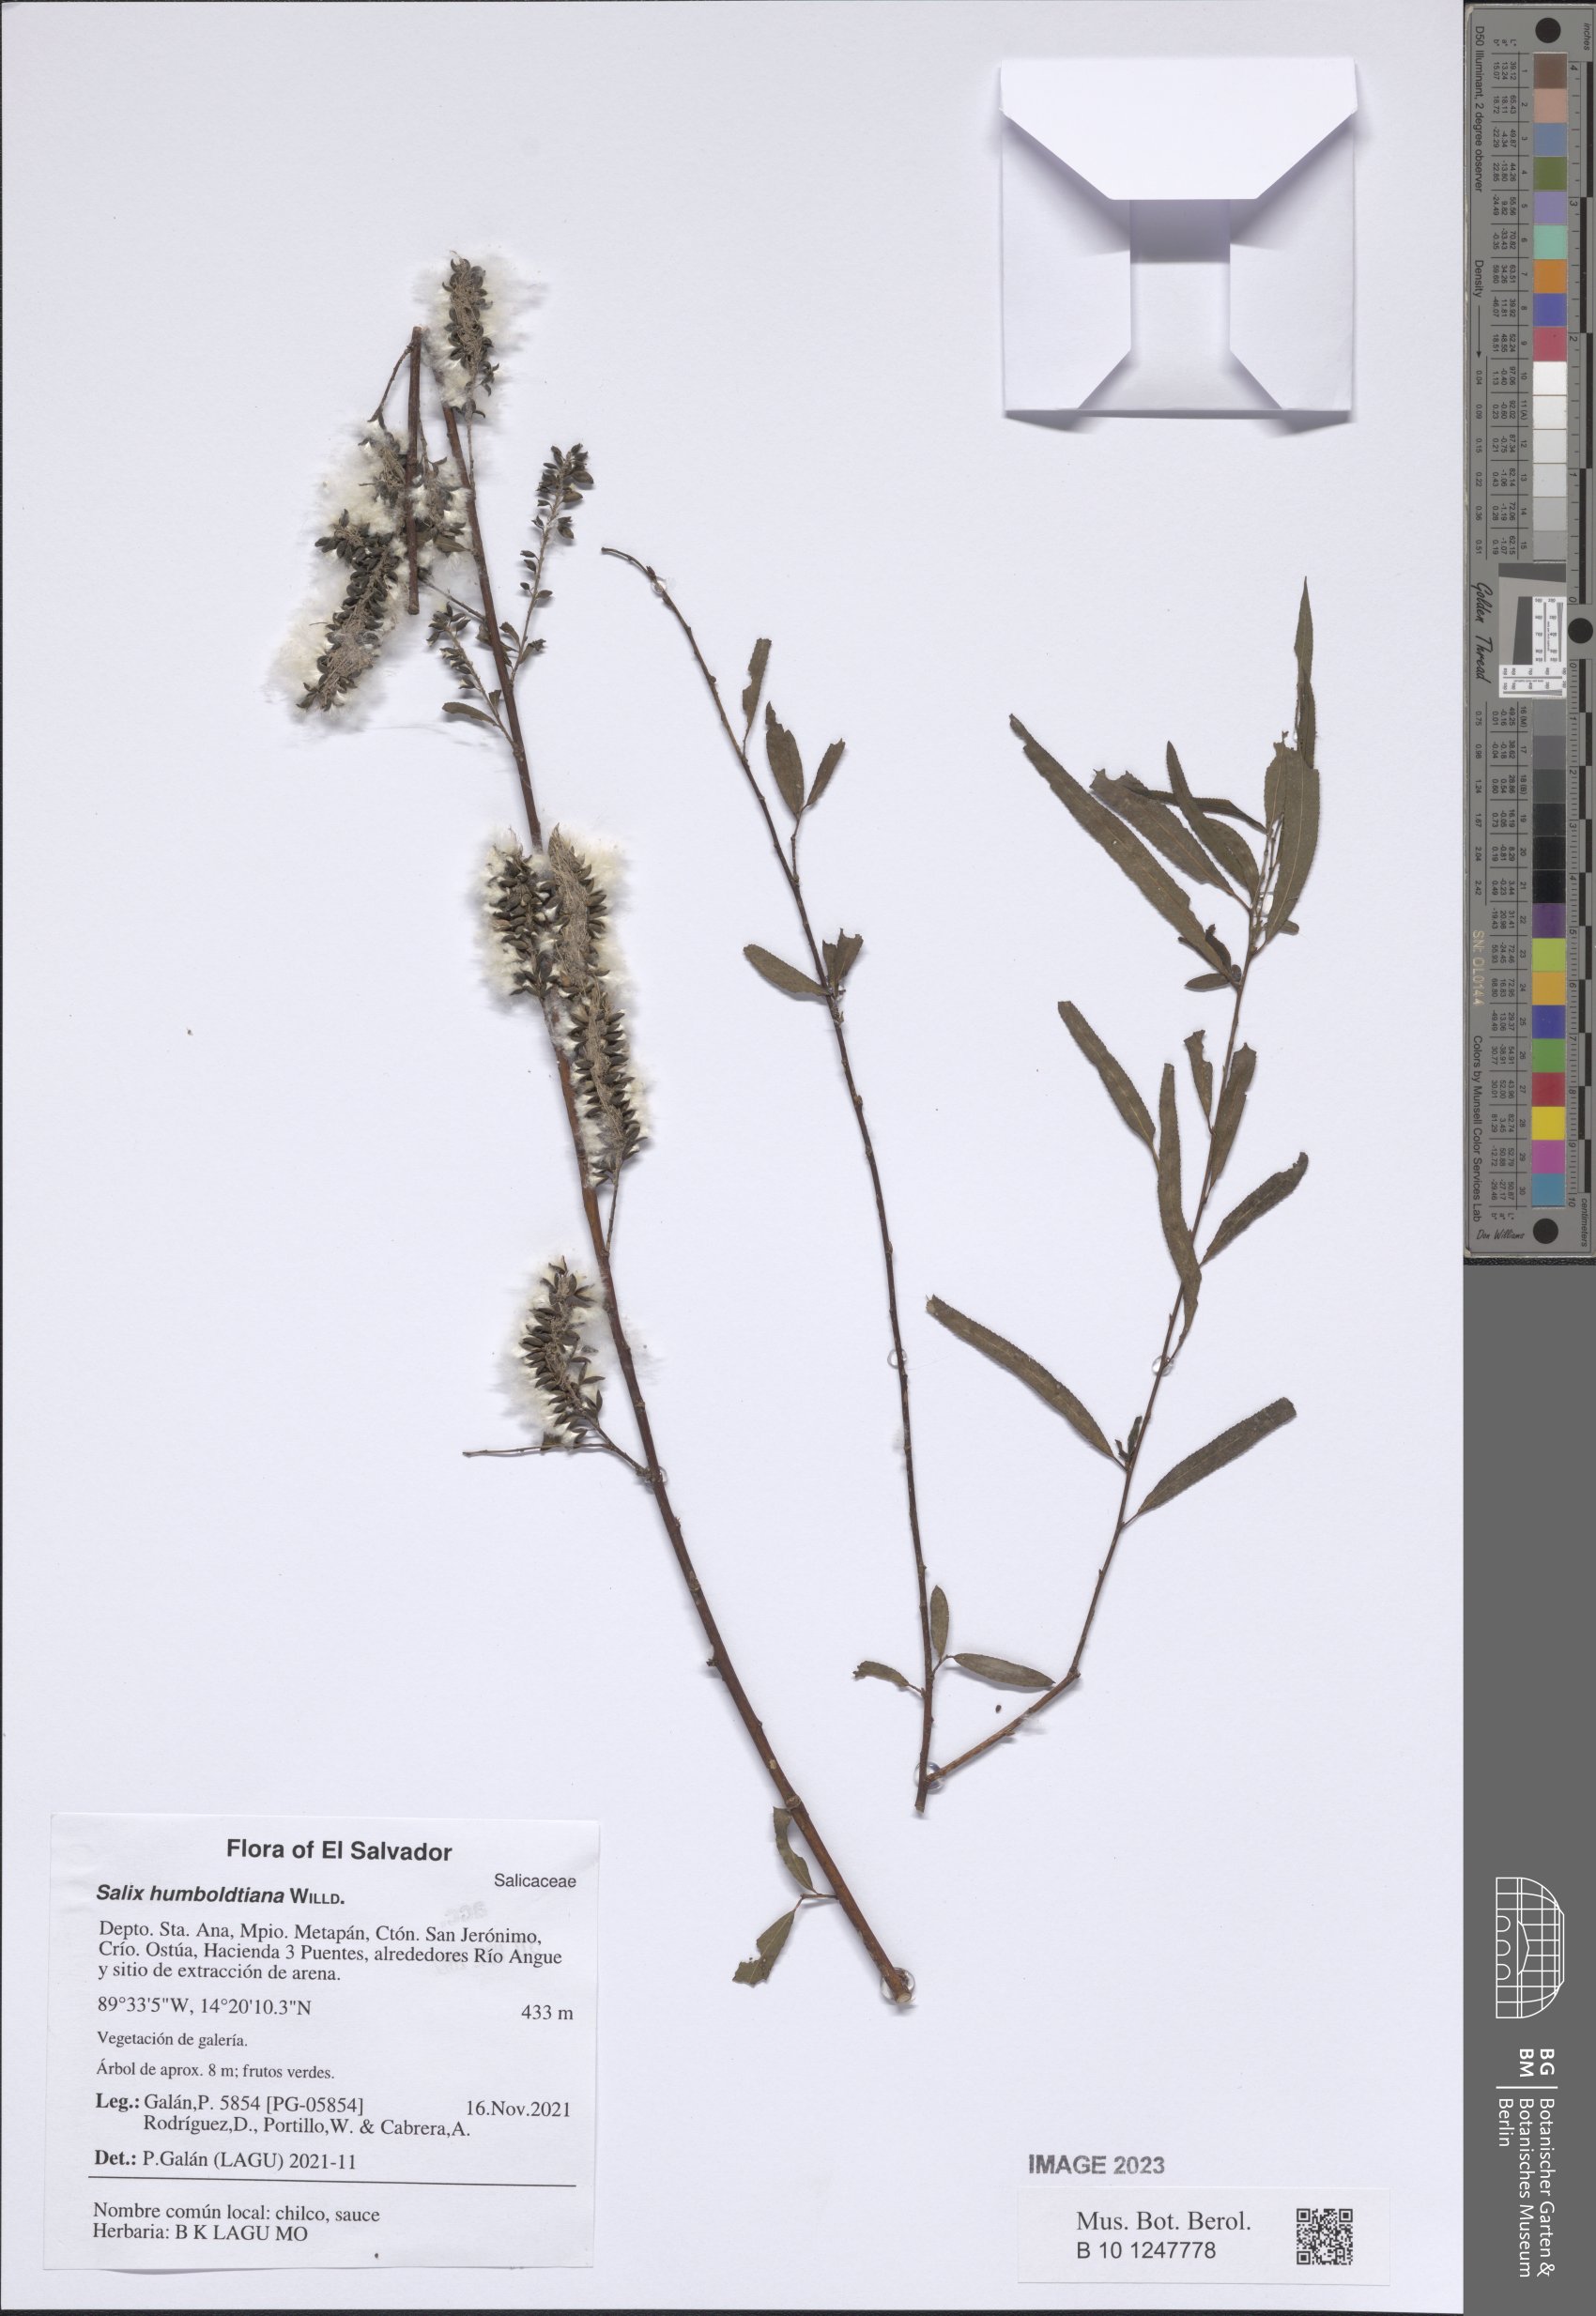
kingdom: Plantae
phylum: Tracheophyta
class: Magnoliopsida
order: Malpighiales
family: Salicaceae
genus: Salix
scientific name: Salix humboldtiana
